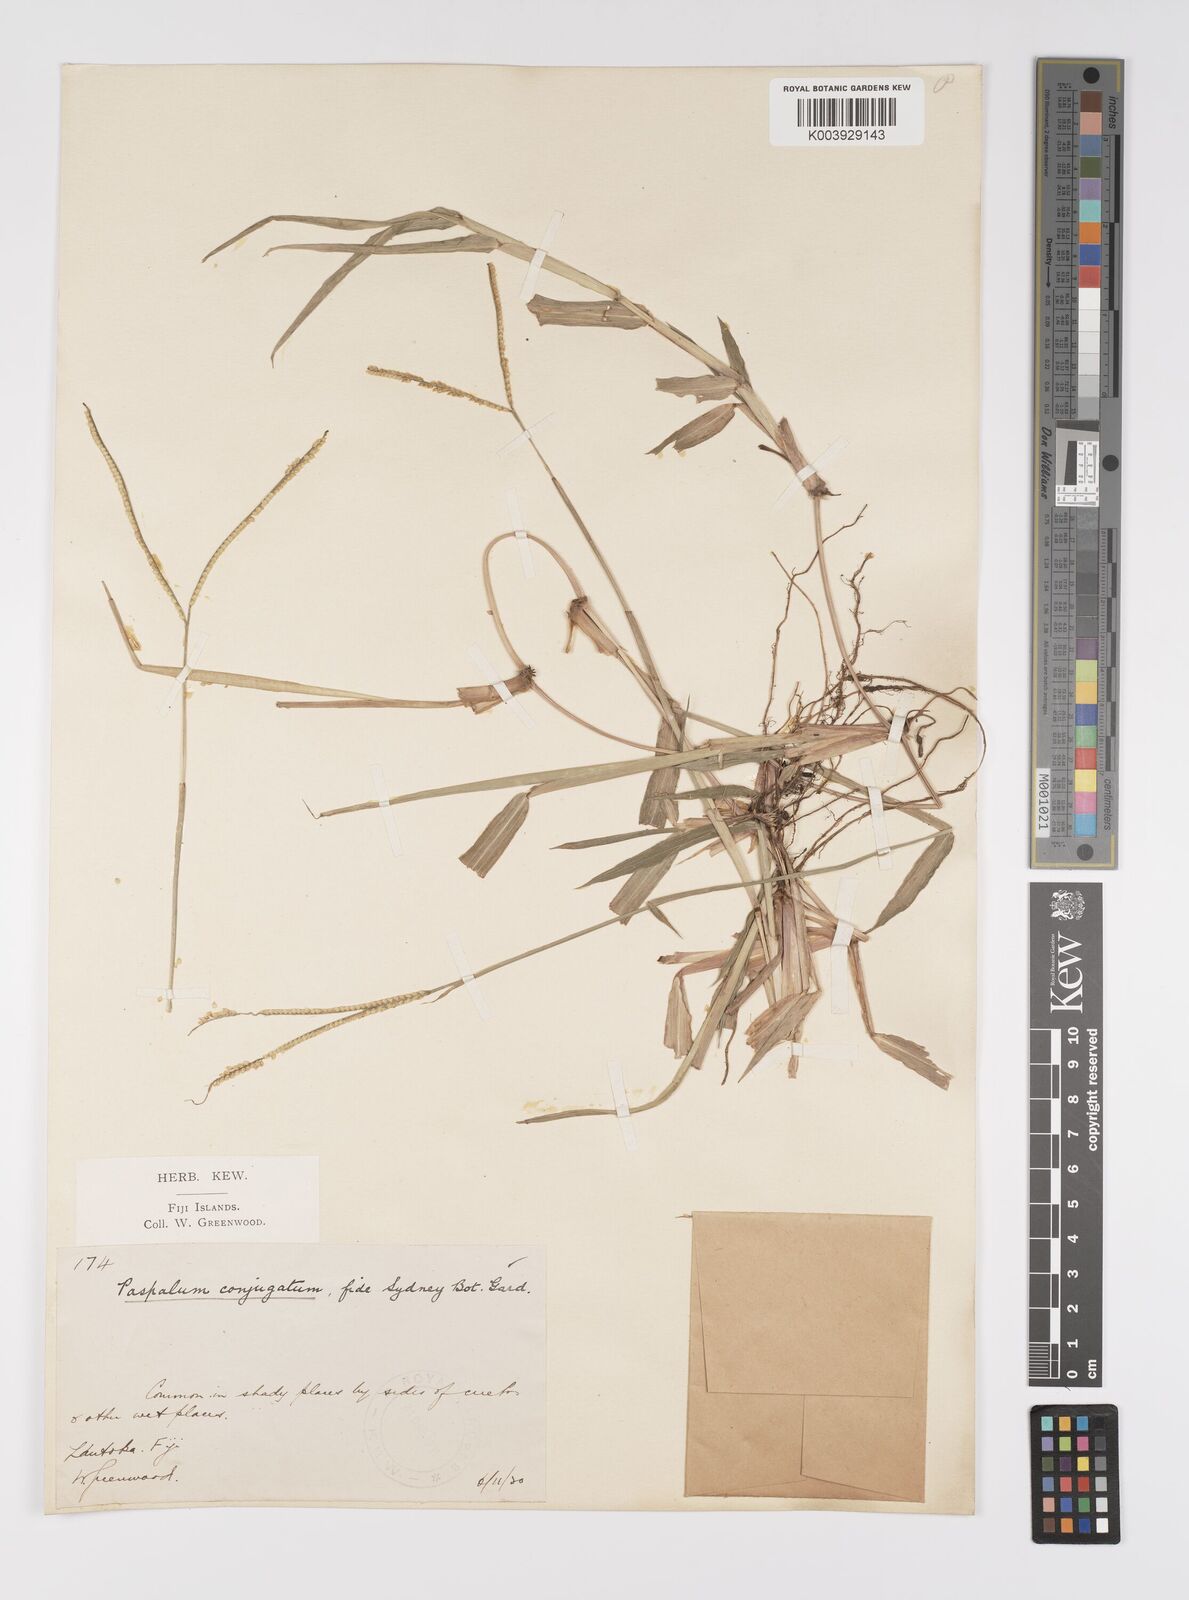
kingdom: Plantae
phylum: Tracheophyta
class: Liliopsida
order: Poales
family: Poaceae
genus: Paspalum
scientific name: Paspalum conjugatum
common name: Hilograss
